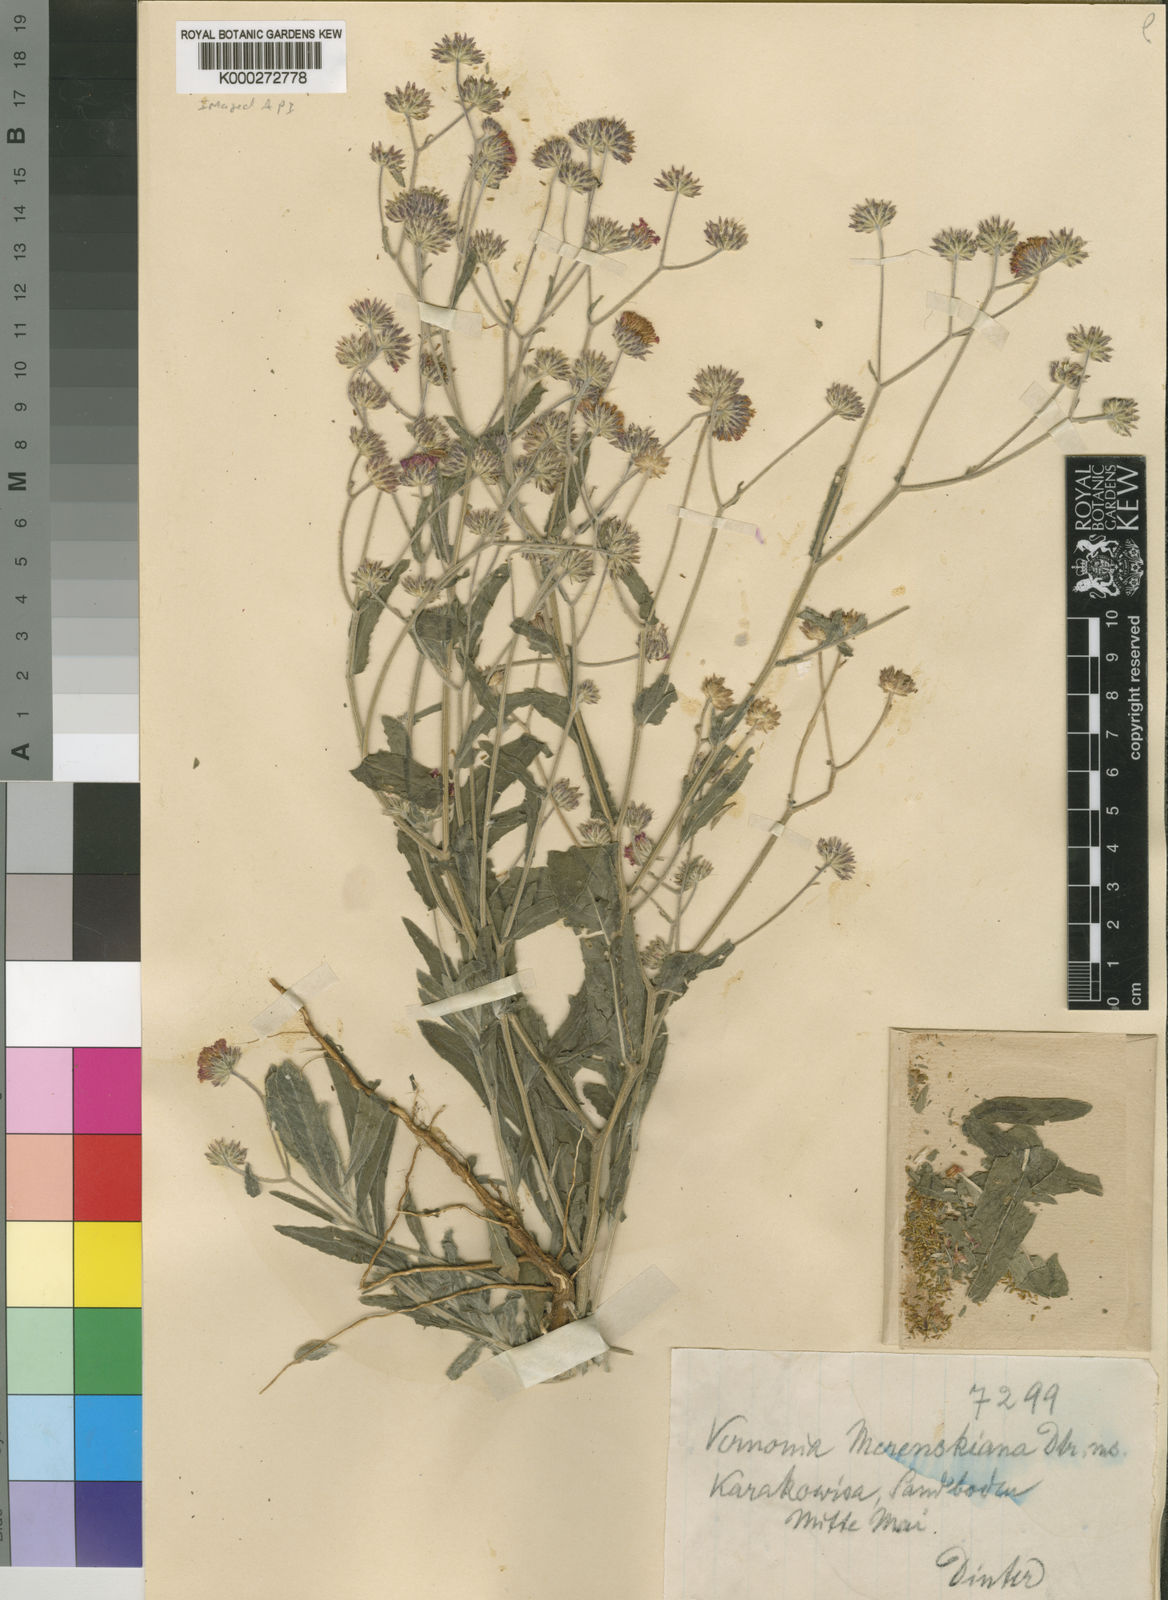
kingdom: Plantae
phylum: Tracheophyta
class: Magnoliopsida
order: Asterales
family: Asteraceae
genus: Erlangea
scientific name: Erlangea misera
